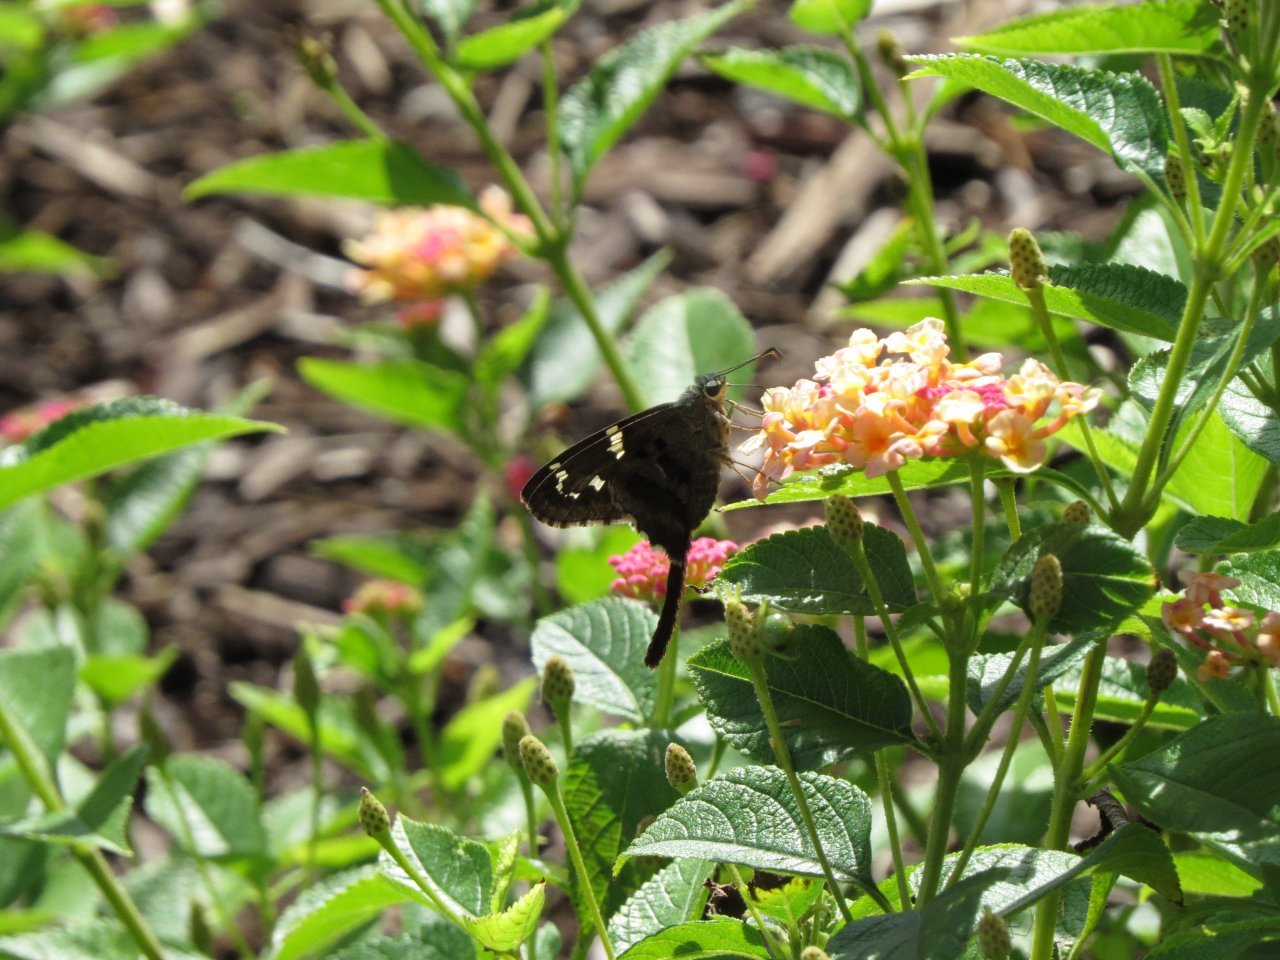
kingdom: Animalia
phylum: Arthropoda
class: Insecta
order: Lepidoptera
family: Hesperiidae
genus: Urbanus
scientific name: Urbanus proteus
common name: Long-tailed Skipper
